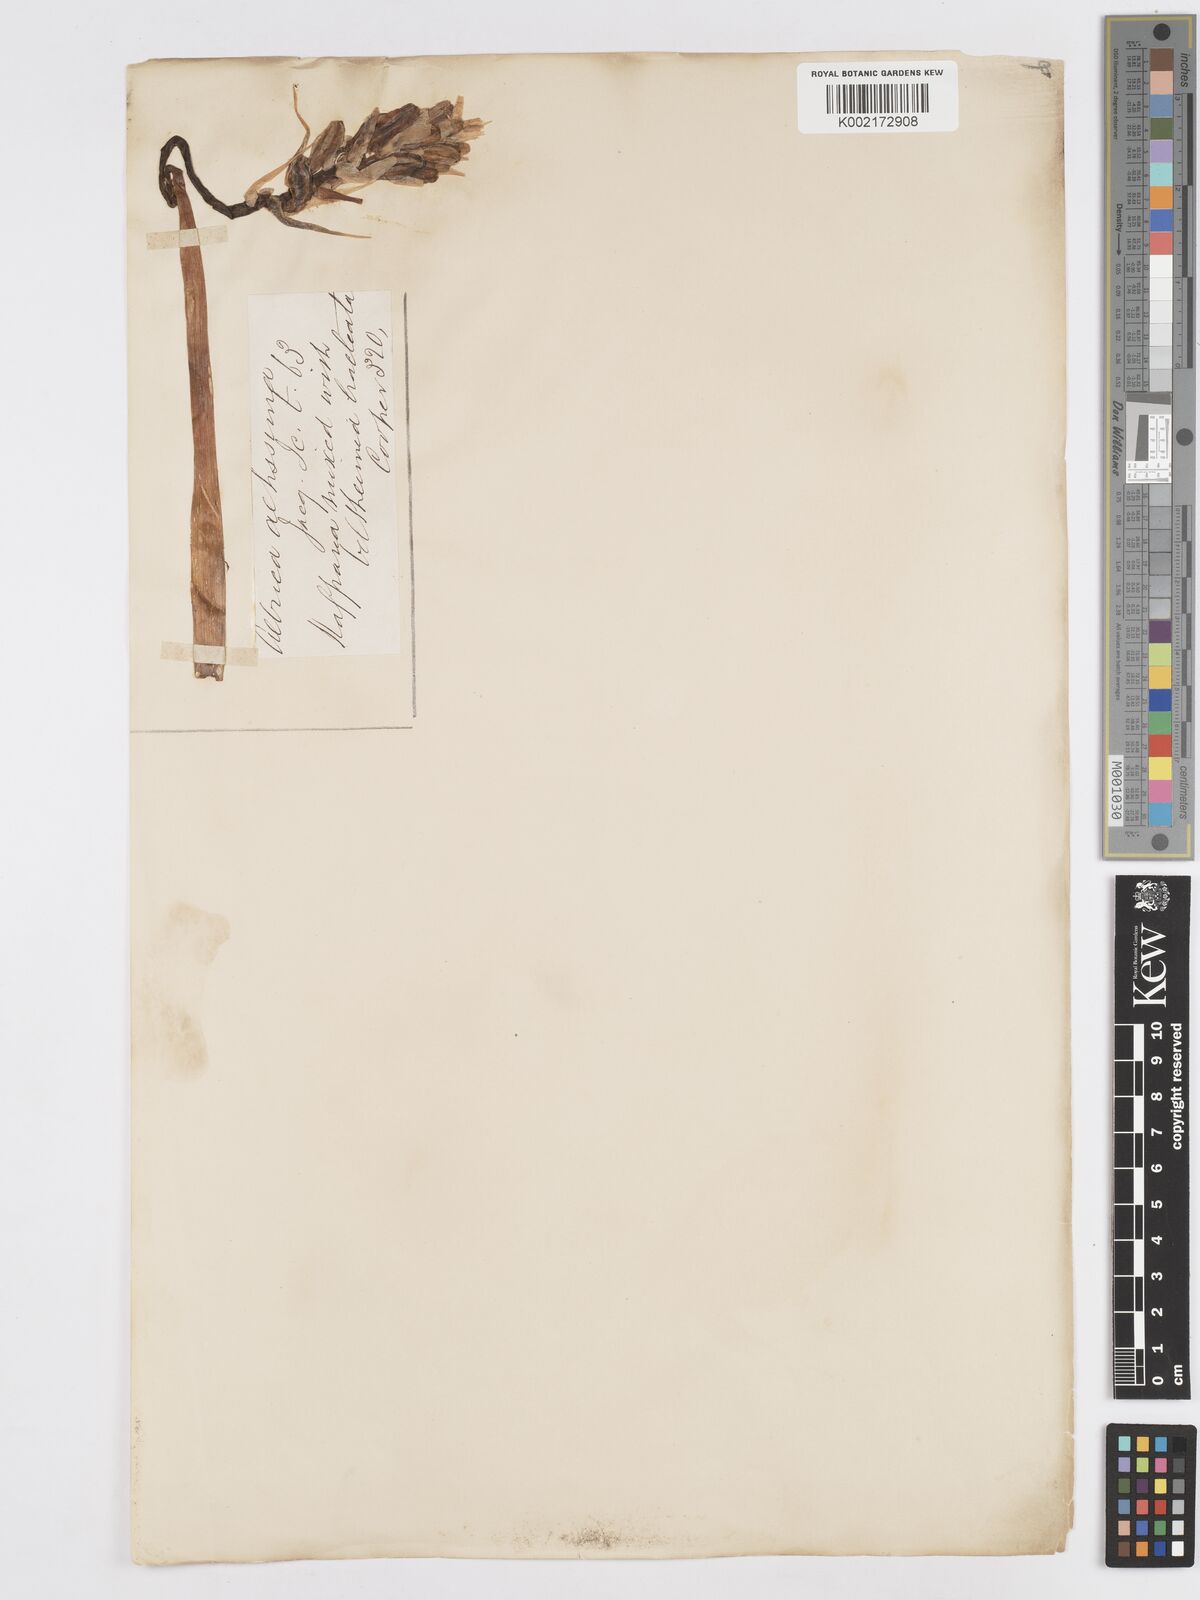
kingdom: Plantae
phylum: Tracheophyta
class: Liliopsida
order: Asparagales
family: Asparagaceae
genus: Albuca
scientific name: Albuca nelsonii
